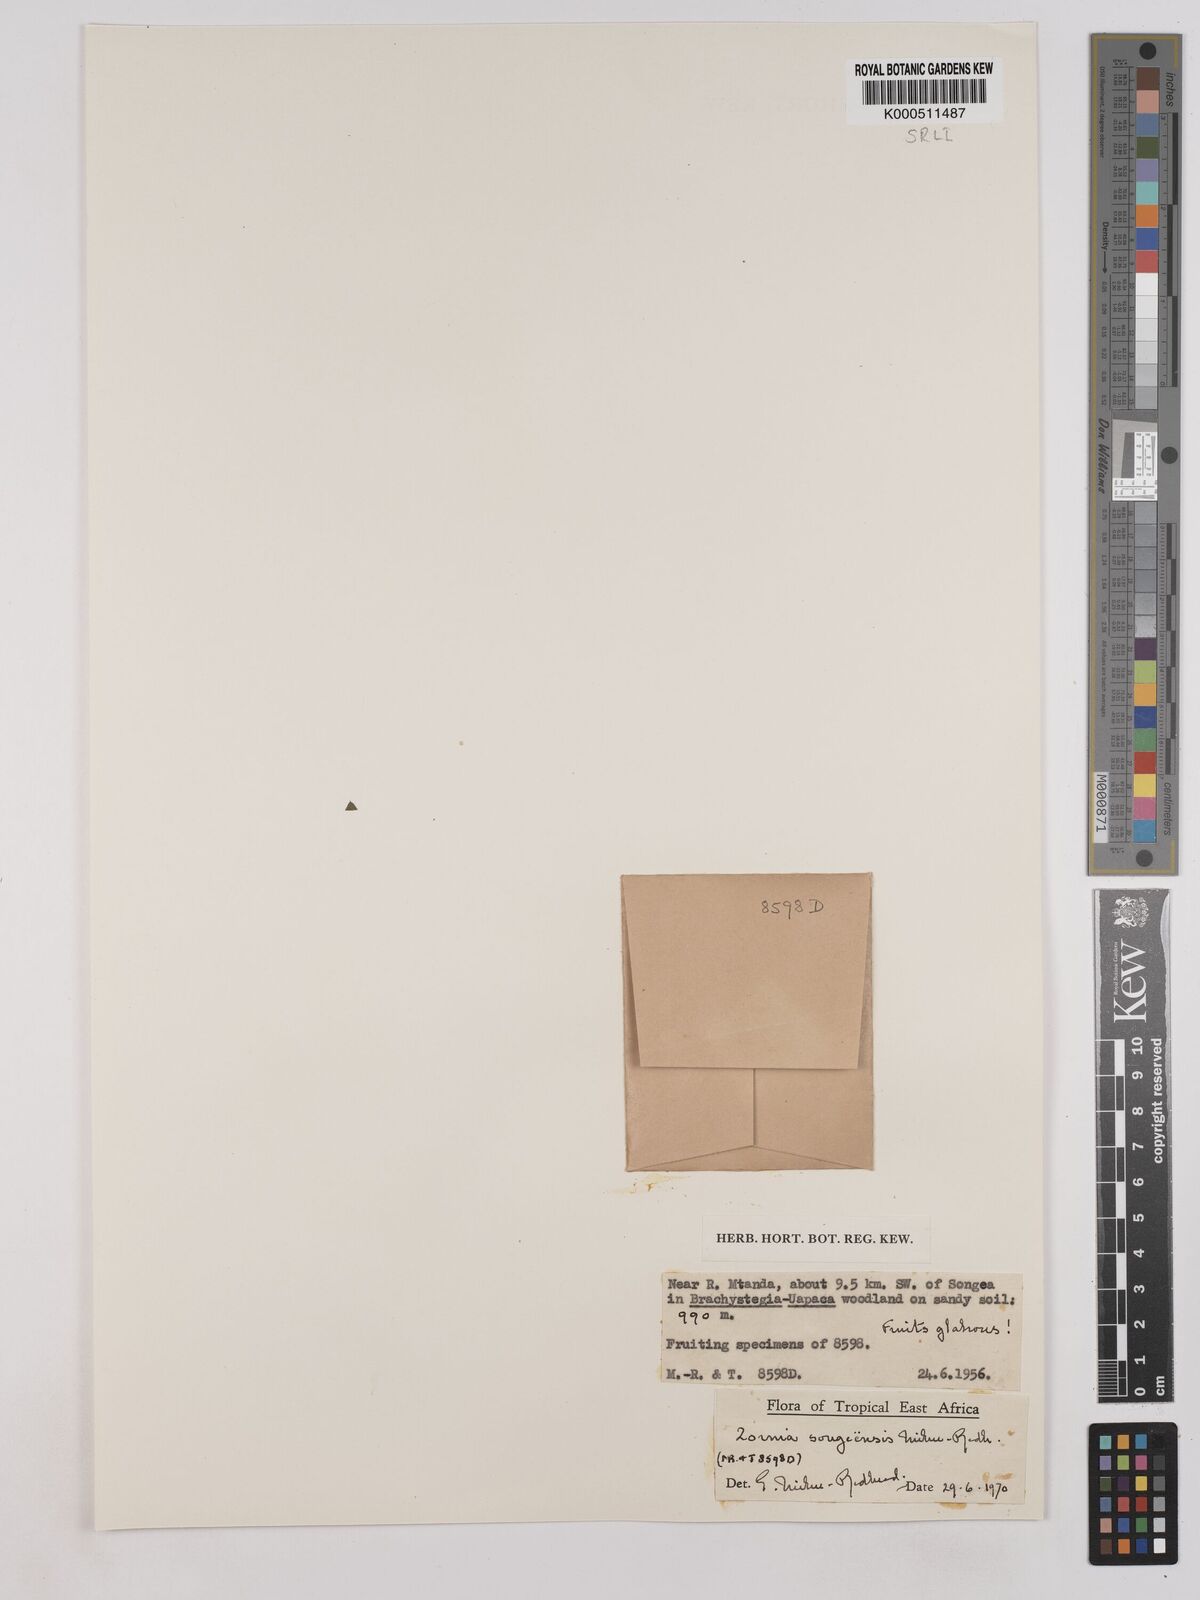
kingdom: Plantae
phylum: Tracheophyta
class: Magnoliopsida
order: Fabales
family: Fabaceae
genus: Zornia
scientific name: Zornia songeensis
